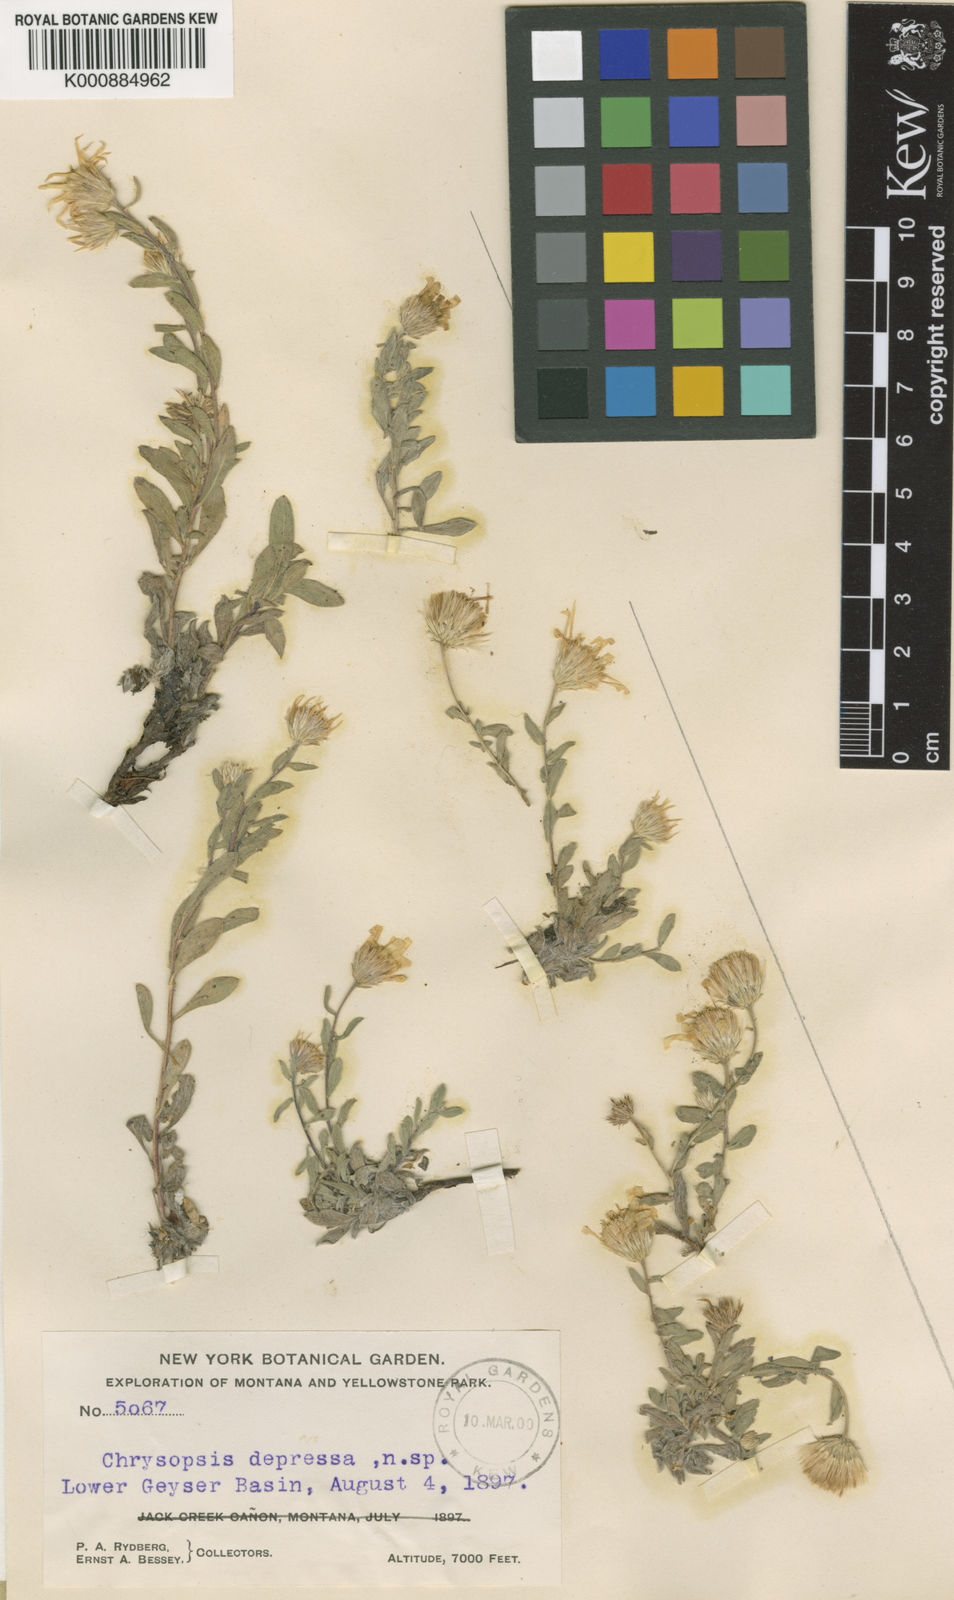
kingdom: Plantae
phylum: Tracheophyta
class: Magnoliopsida
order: Asterales
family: Asteraceae
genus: Heterotheca
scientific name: Heterotheca depressa
